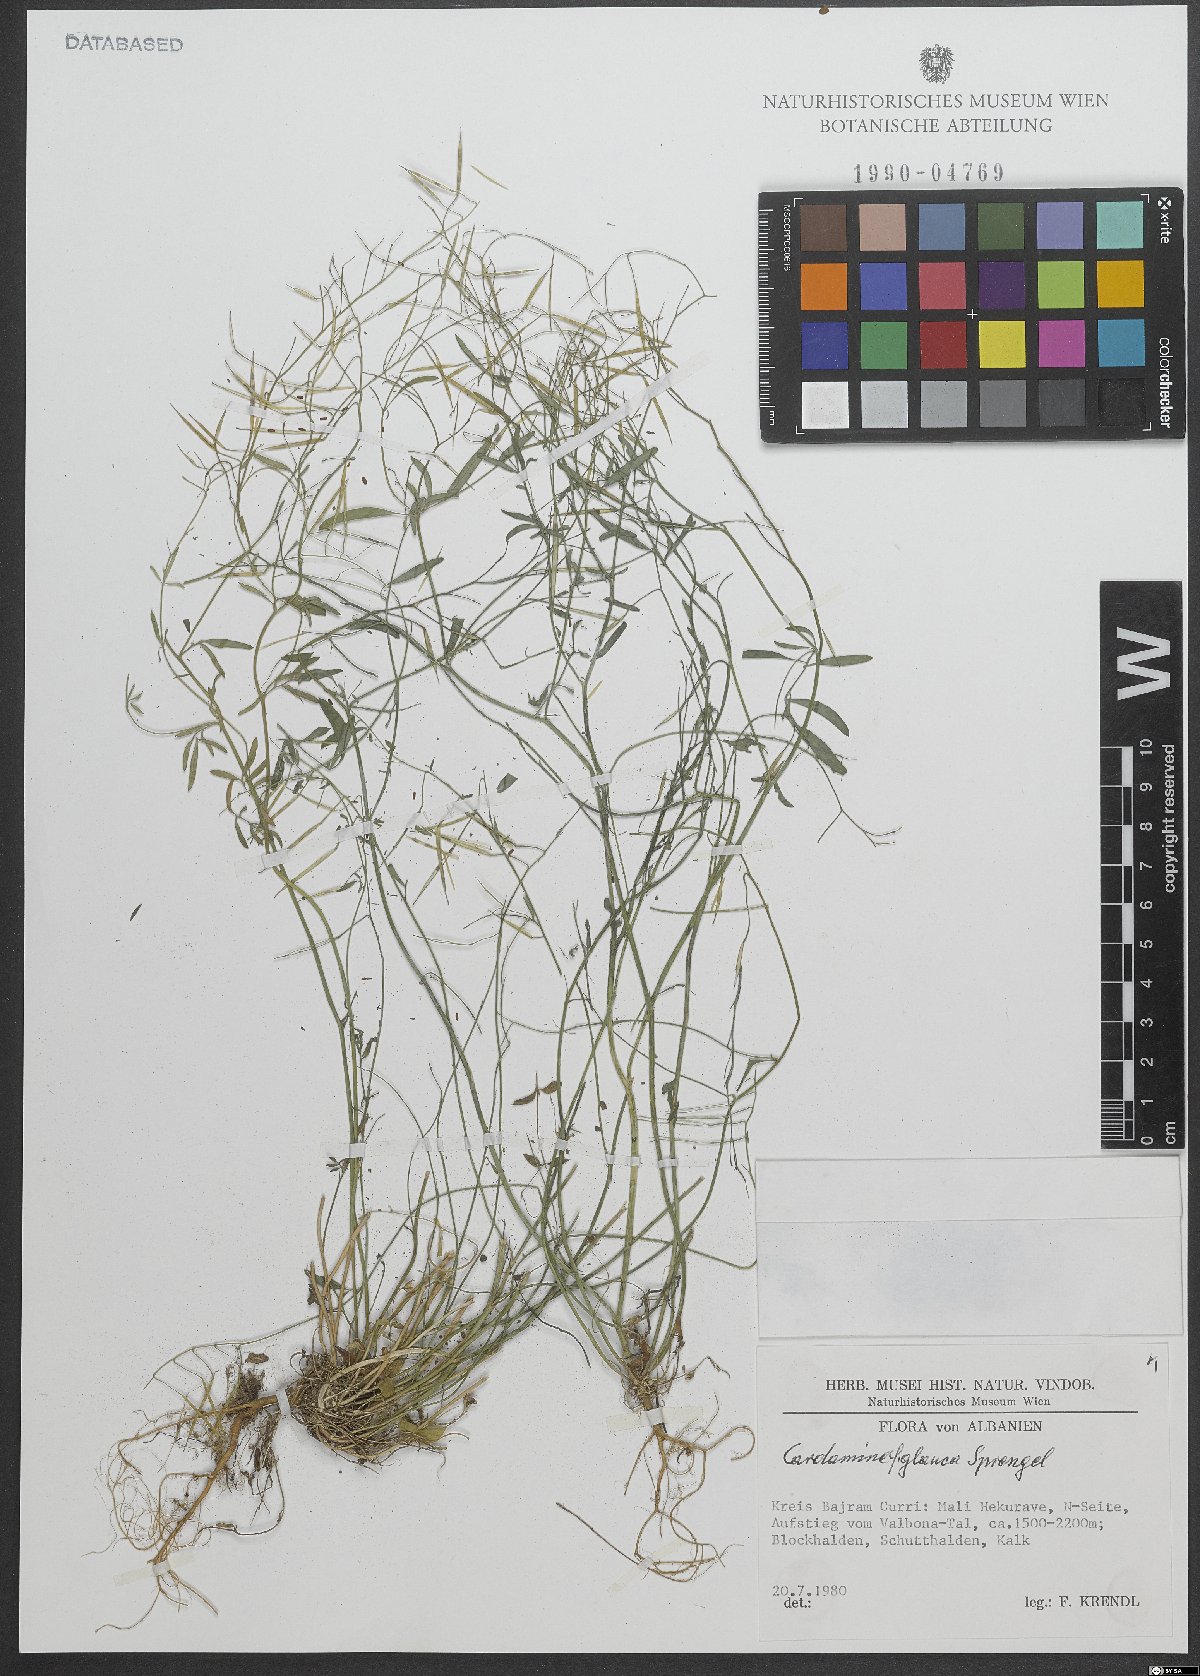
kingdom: Plantae
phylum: Tracheophyta
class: Magnoliopsida
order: Brassicales
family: Brassicaceae
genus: Cardamine
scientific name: Cardamine glauca
